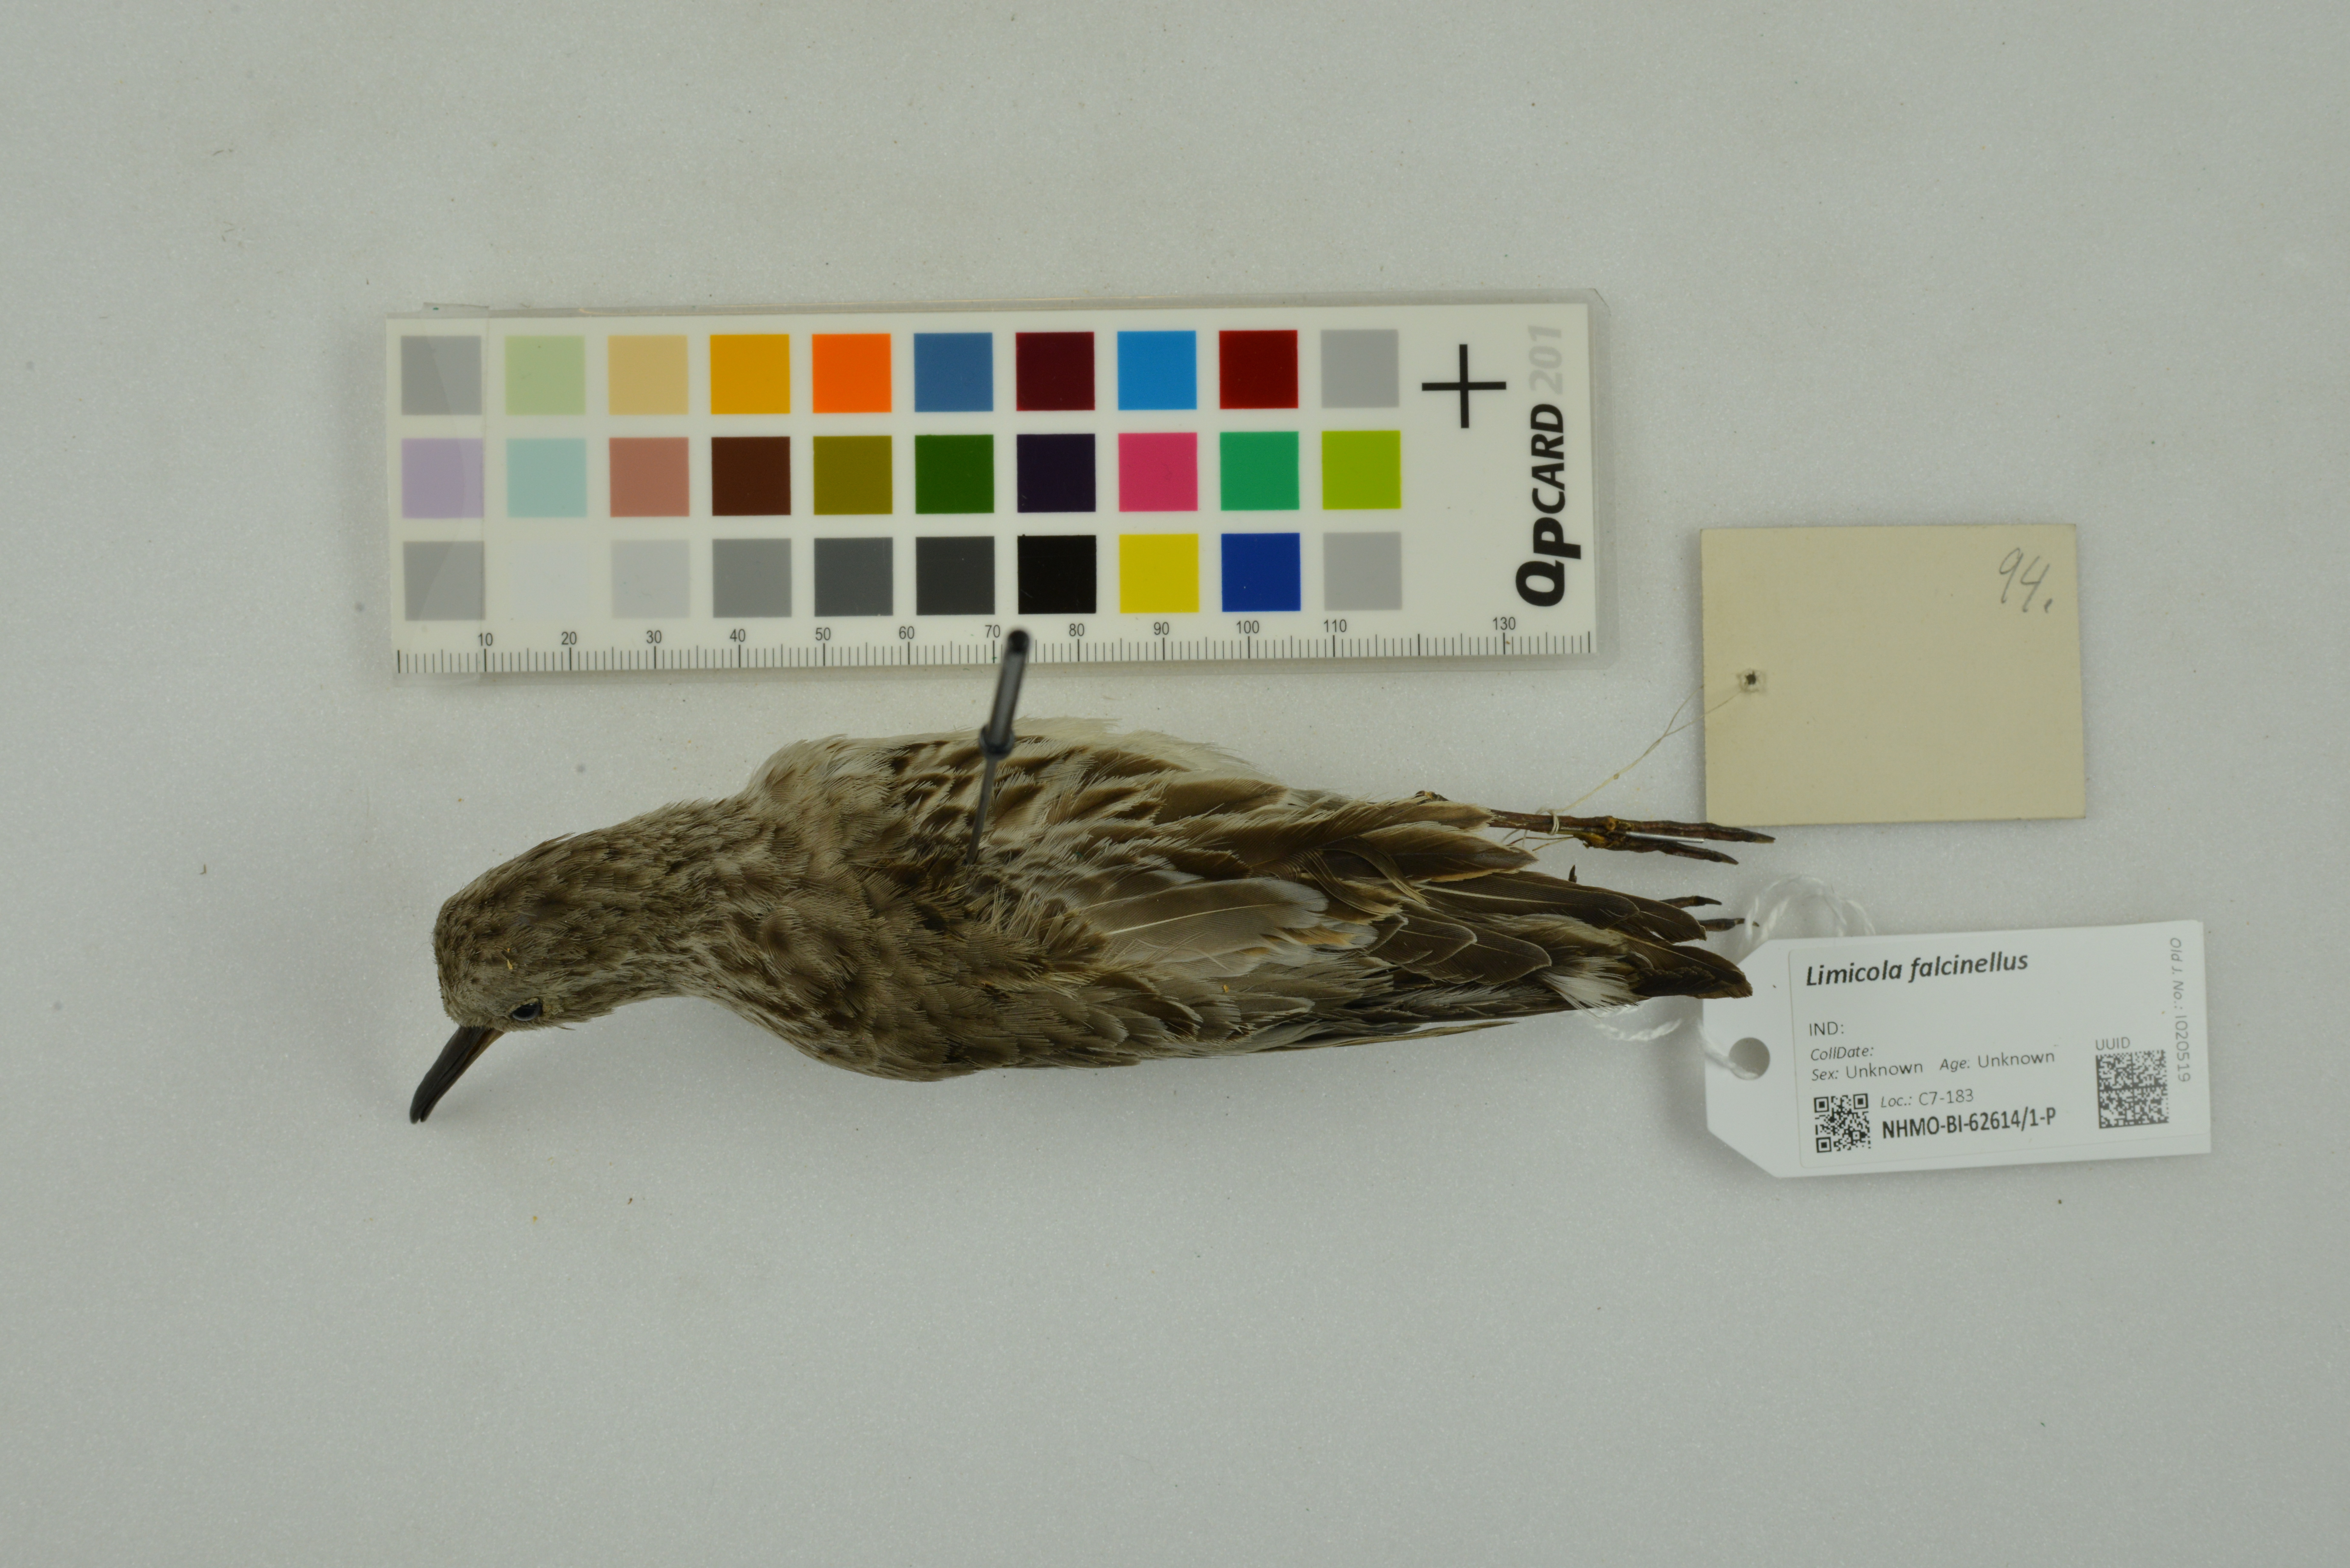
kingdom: Animalia
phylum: Chordata
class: Aves
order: Charadriiformes
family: Scolopacidae
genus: Calidris
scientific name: Calidris falcinellus
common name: Broad-billed sandpiper
